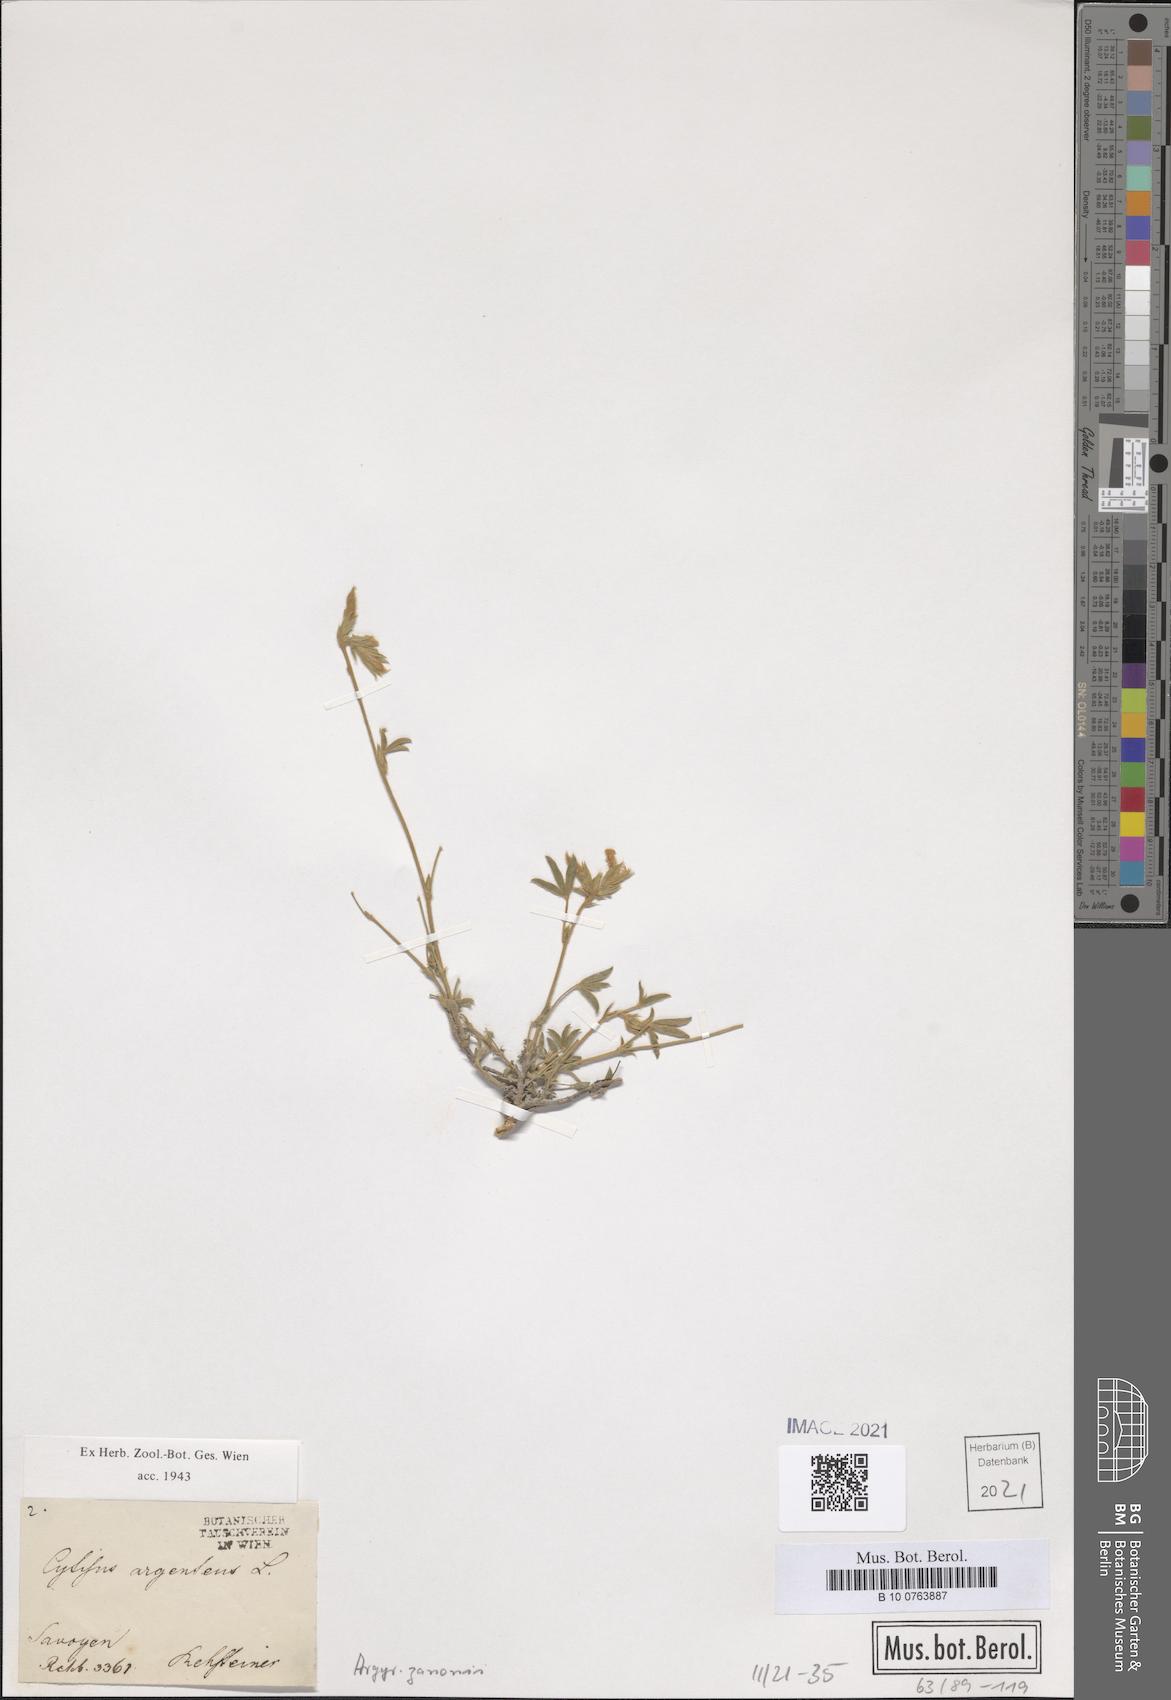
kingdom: Plantae
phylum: Tracheophyta
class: Magnoliopsida
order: Fabales
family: Fabaceae
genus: Argyrolobium
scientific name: Argyrolobium zanonii
